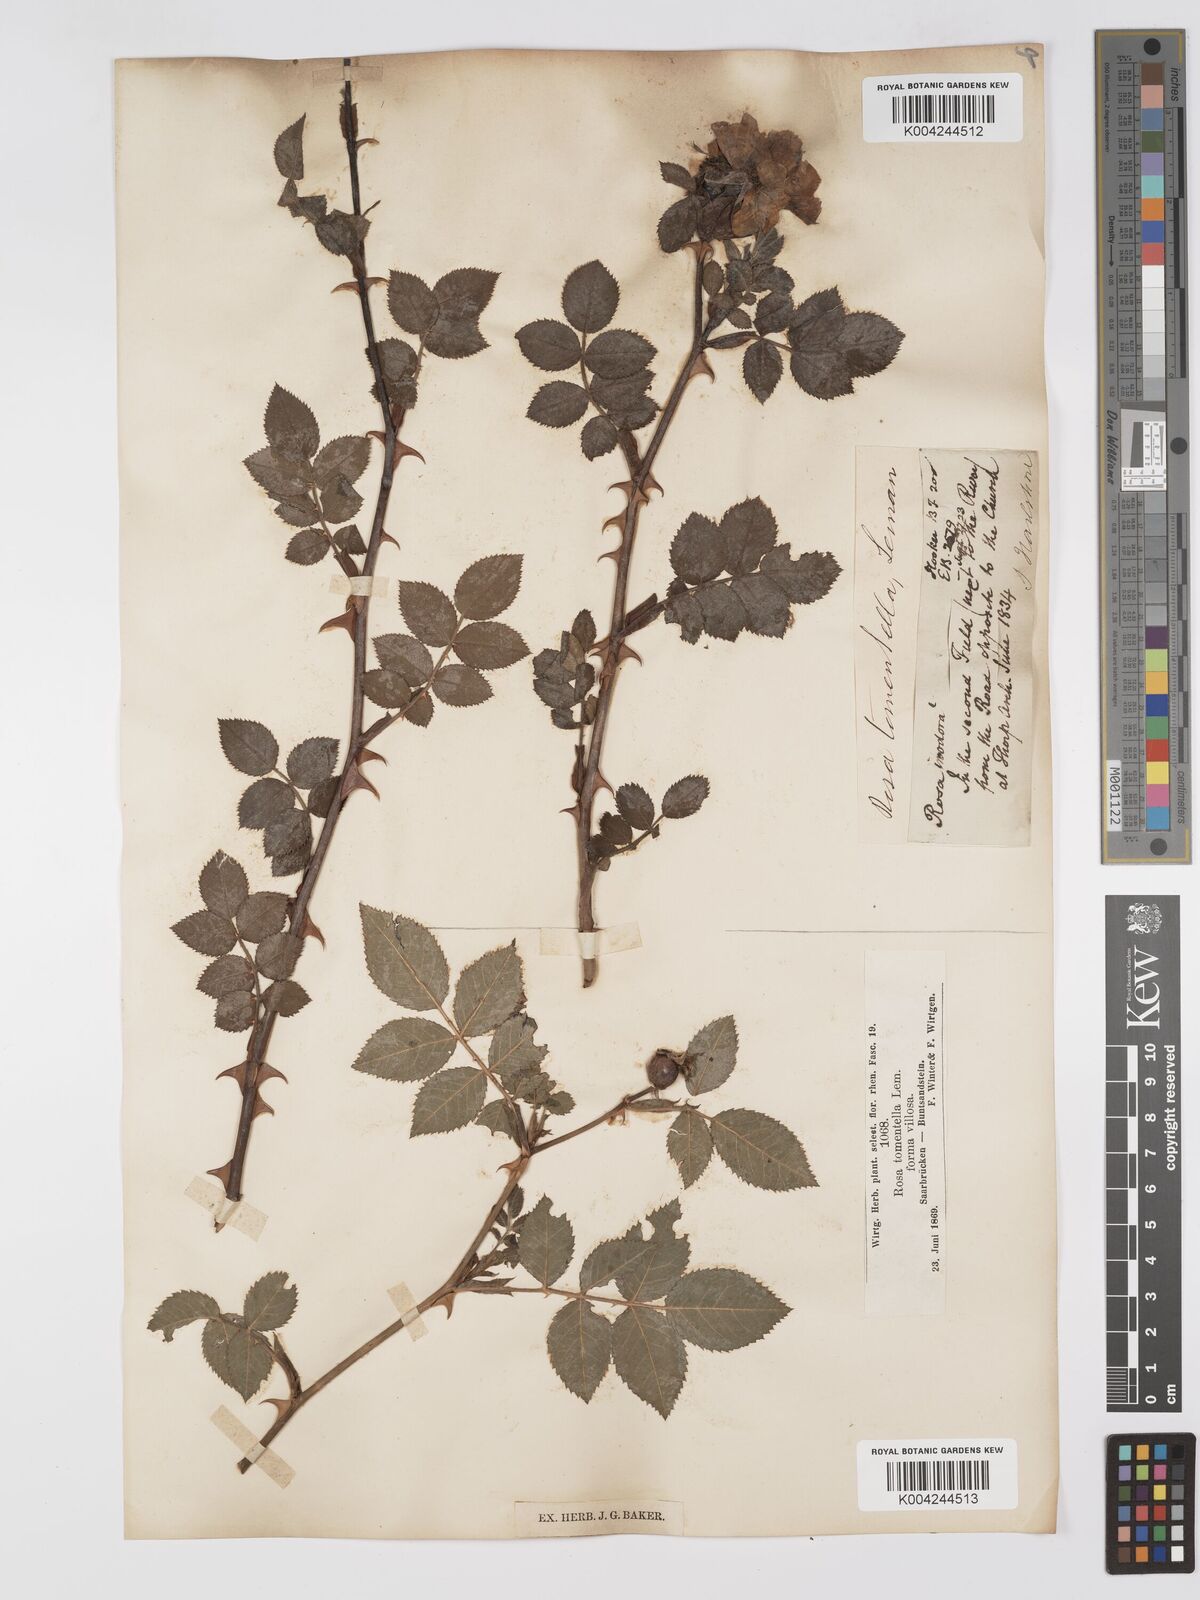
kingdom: Plantae
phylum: Tracheophyta
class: Magnoliopsida
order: Rosales
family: Rosaceae
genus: Rosa
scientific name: Rosa obtusifolia
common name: Round-leaved dog-rose
